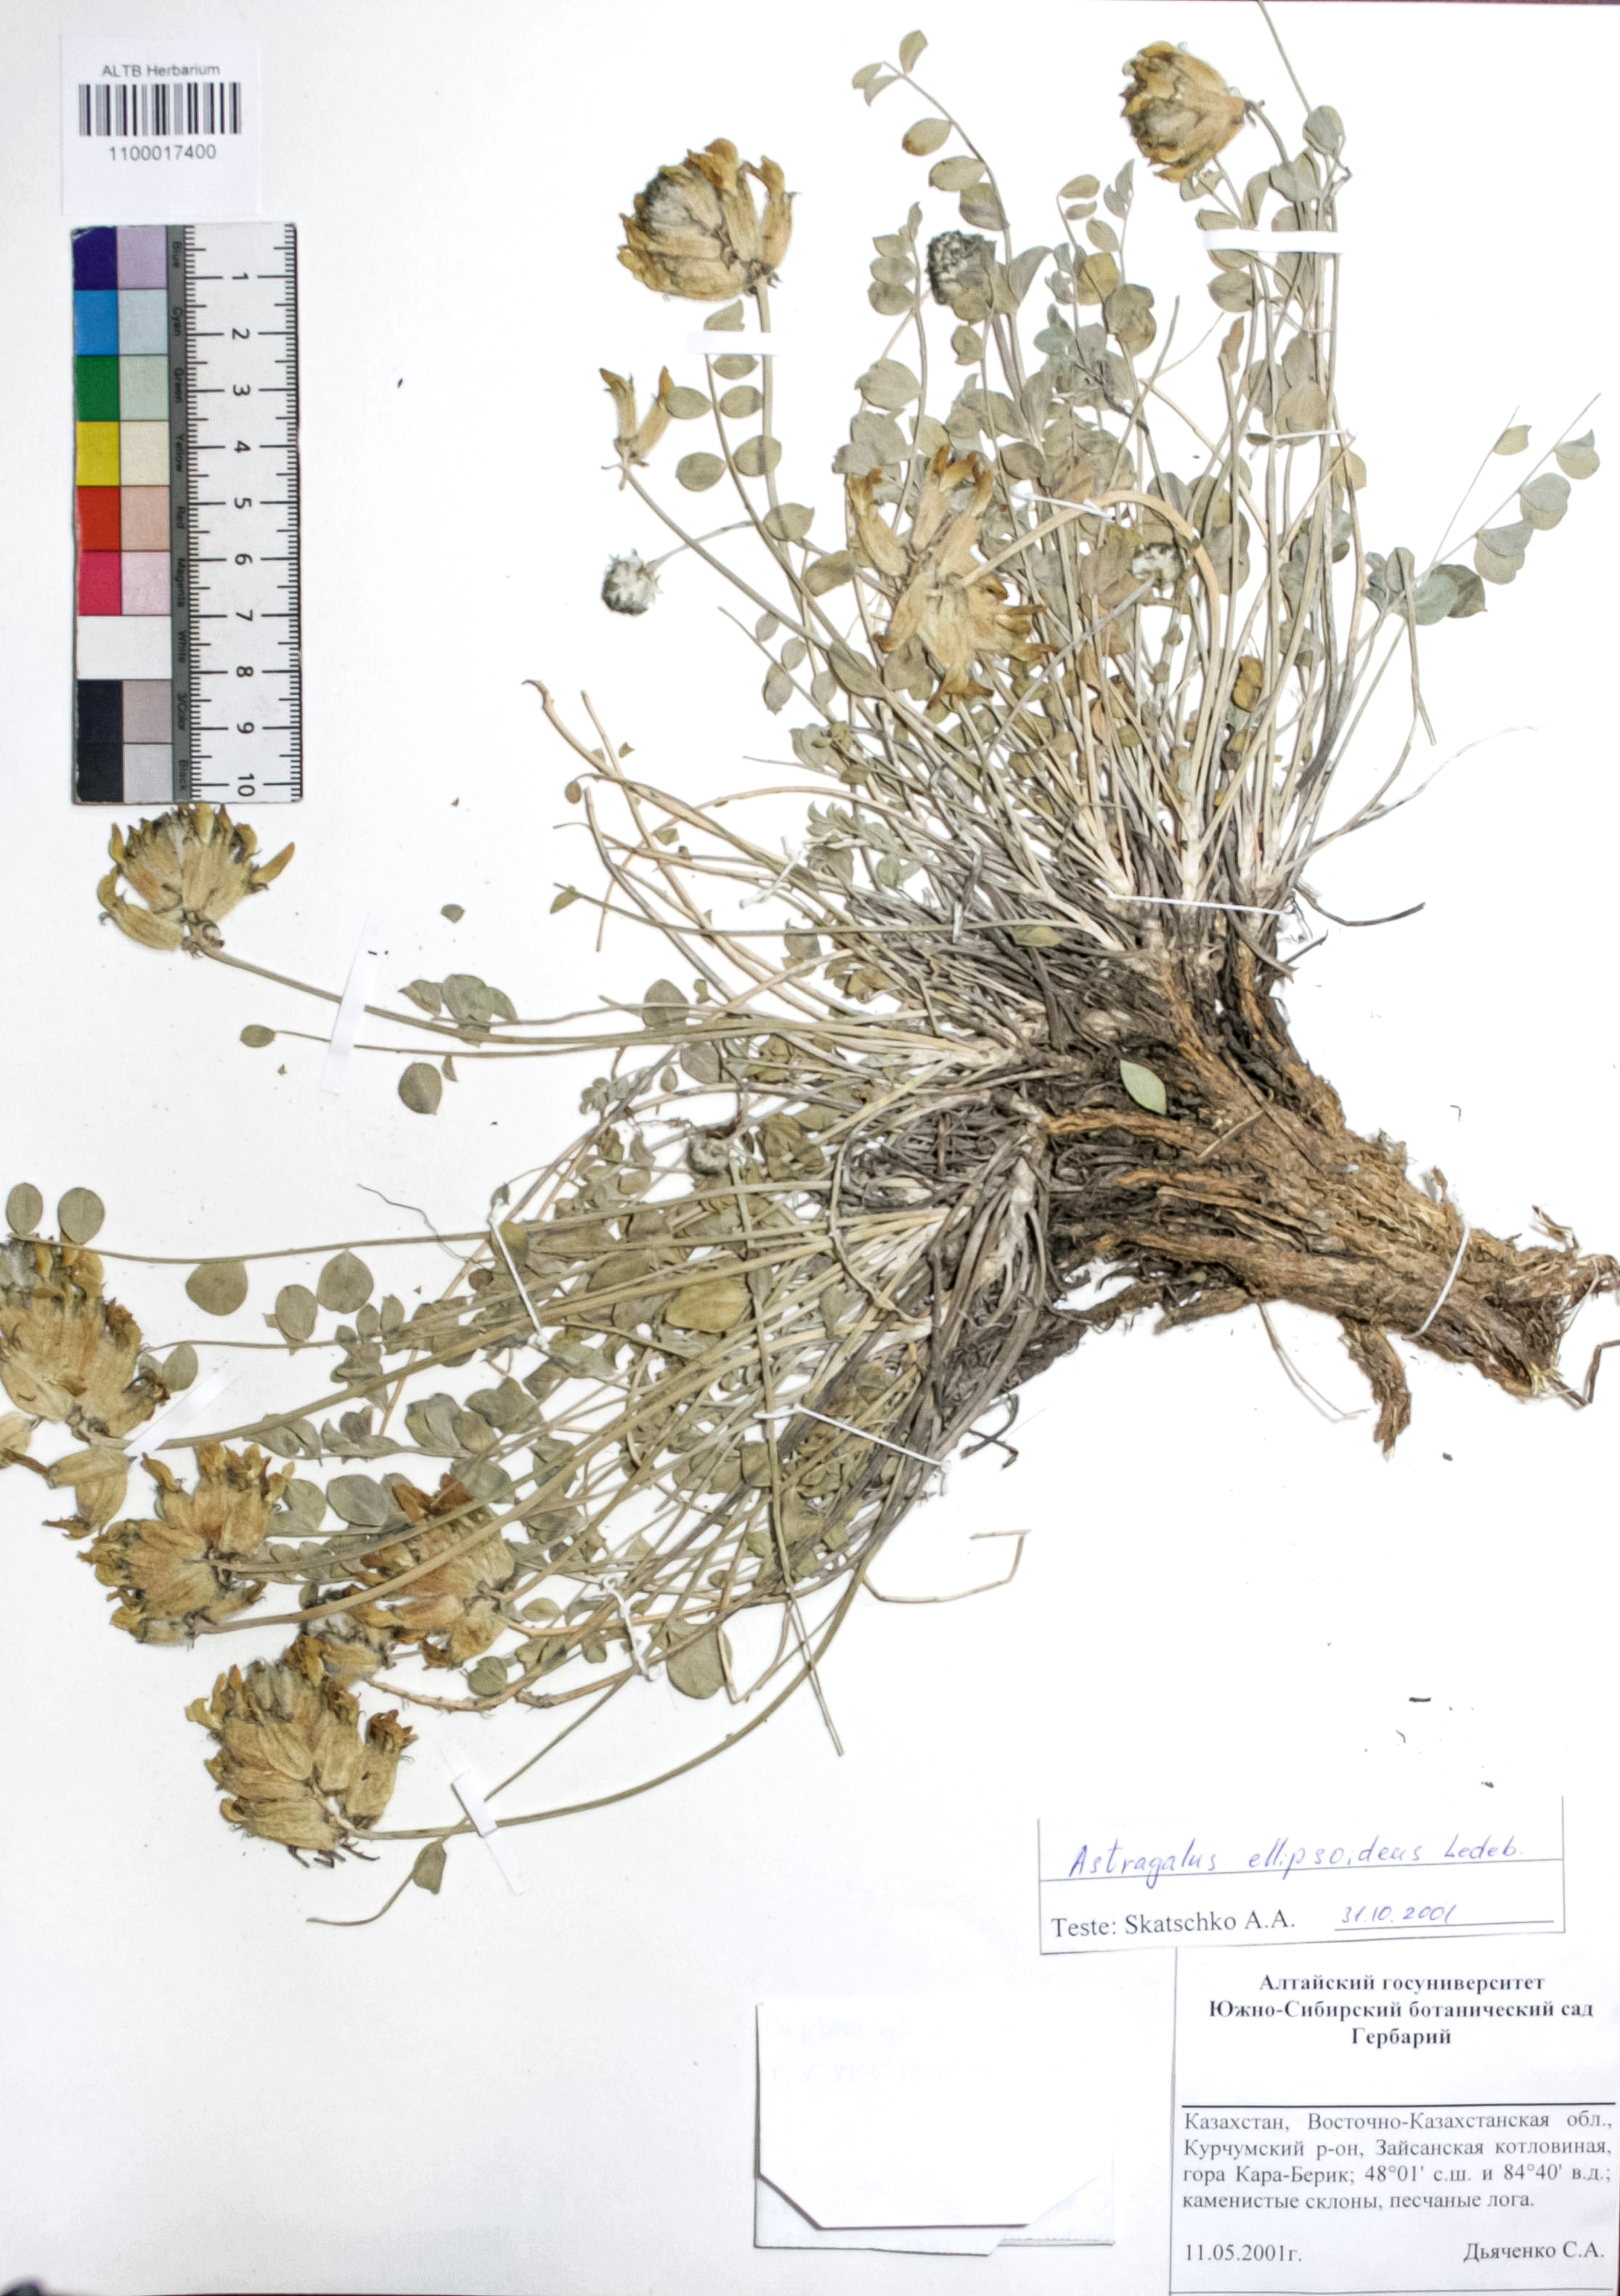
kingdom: Plantae
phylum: Tracheophyta
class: Magnoliopsida
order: Fabales
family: Fabaceae
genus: Astragalus
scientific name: Astragalus ellipsoideus
